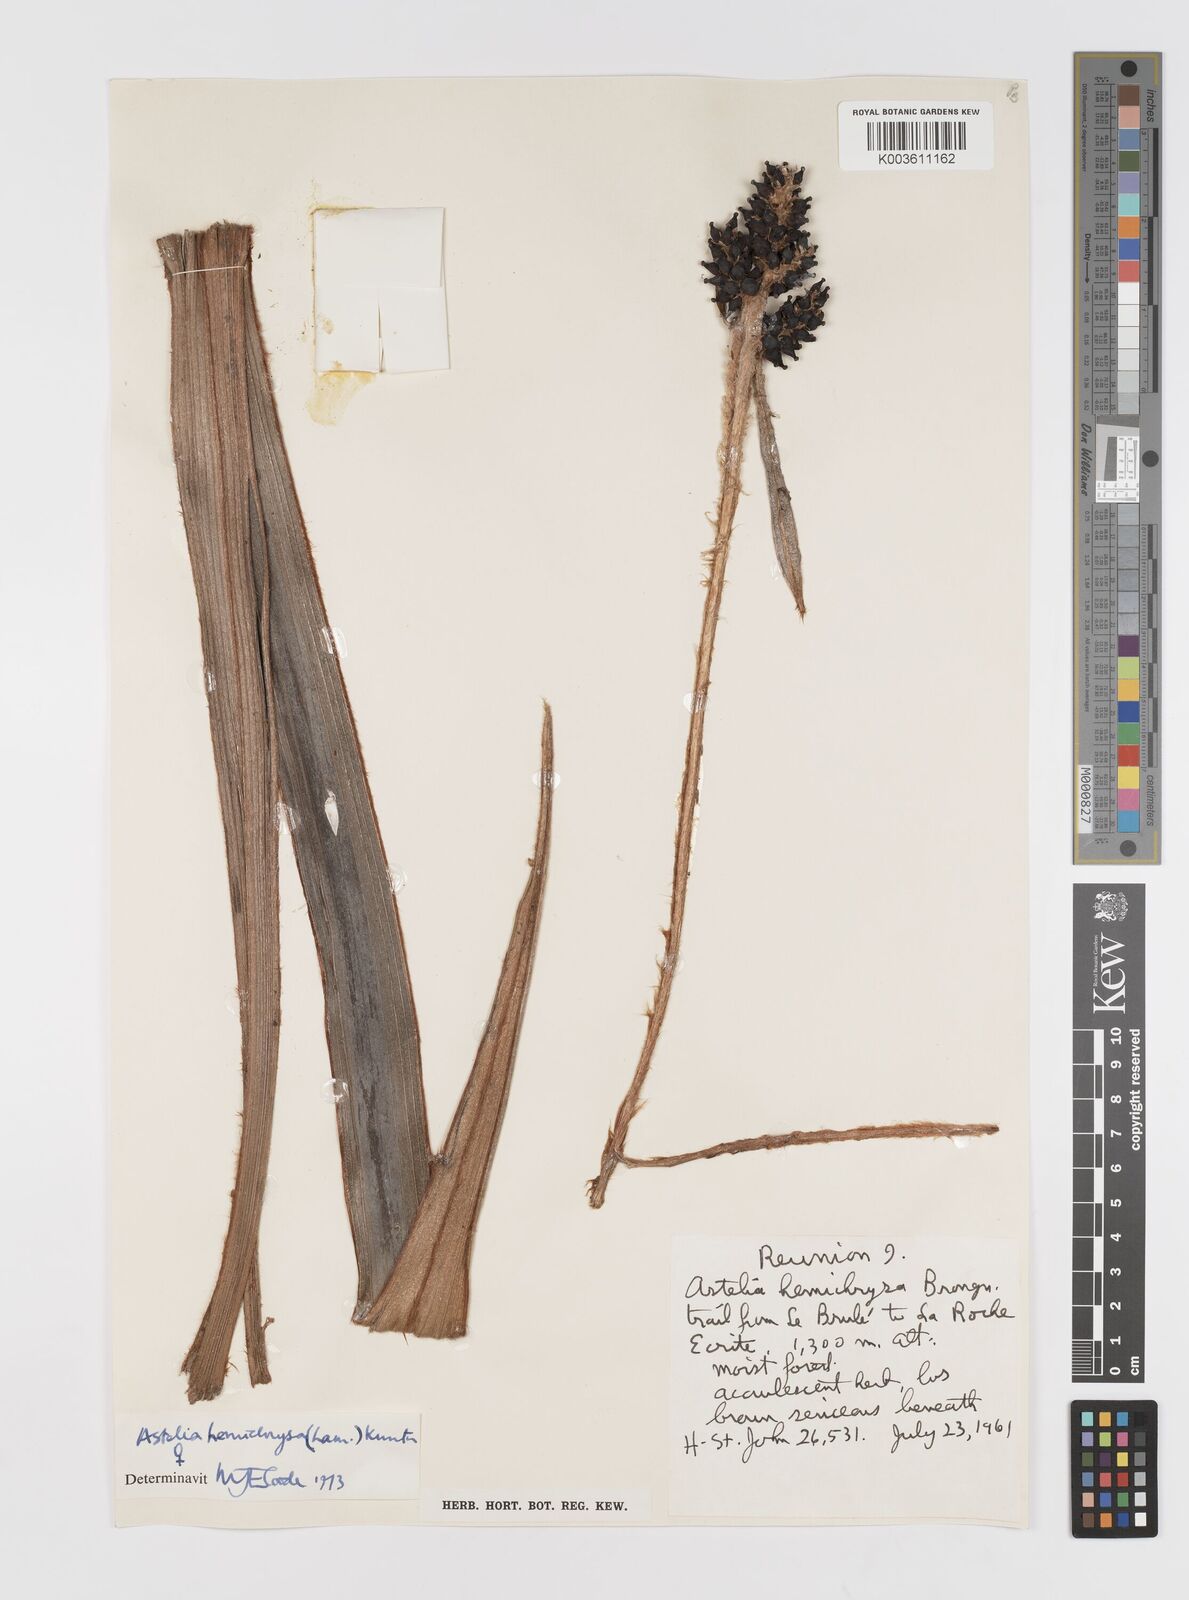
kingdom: Plantae
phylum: Tracheophyta
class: Liliopsida
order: Asparagales
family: Asteliaceae
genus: Astelia
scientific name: Astelia hemichrysa
